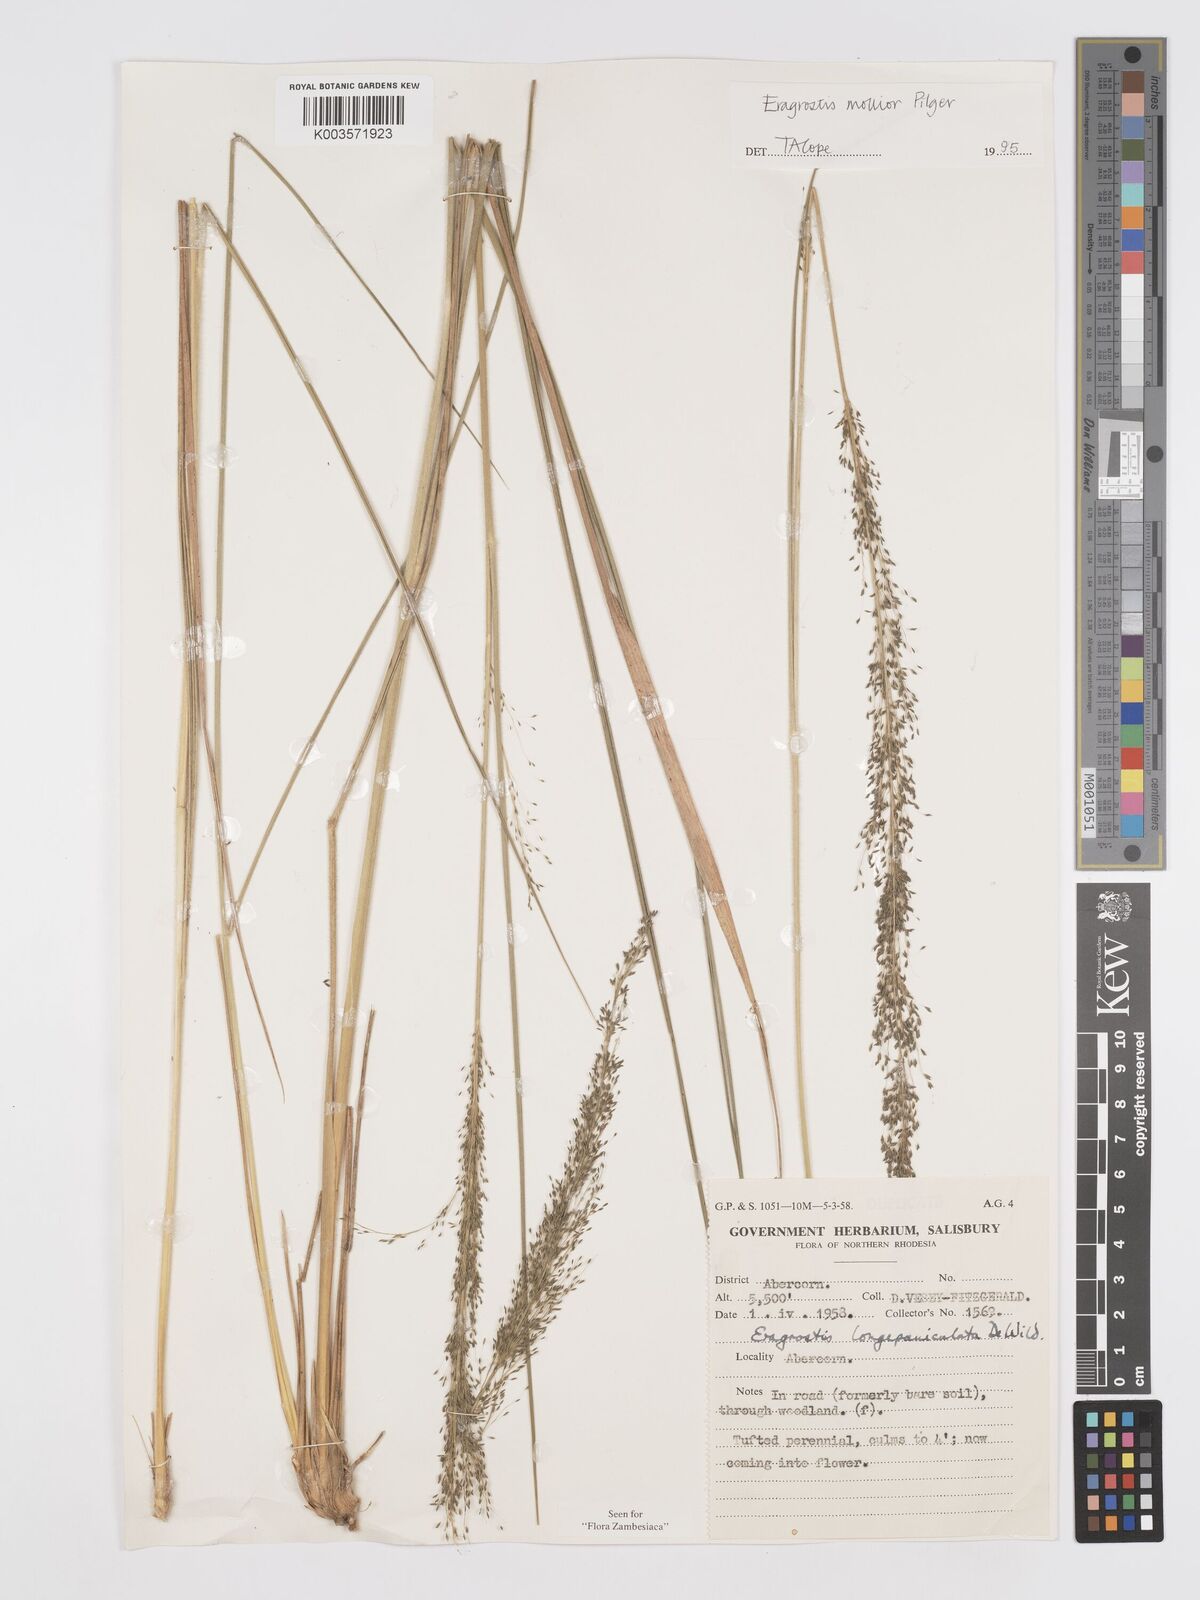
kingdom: Plantae
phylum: Tracheophyta
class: Liliopsida
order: Poales
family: Poaceae
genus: Eragrostis
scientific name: Eragrostis mollior
